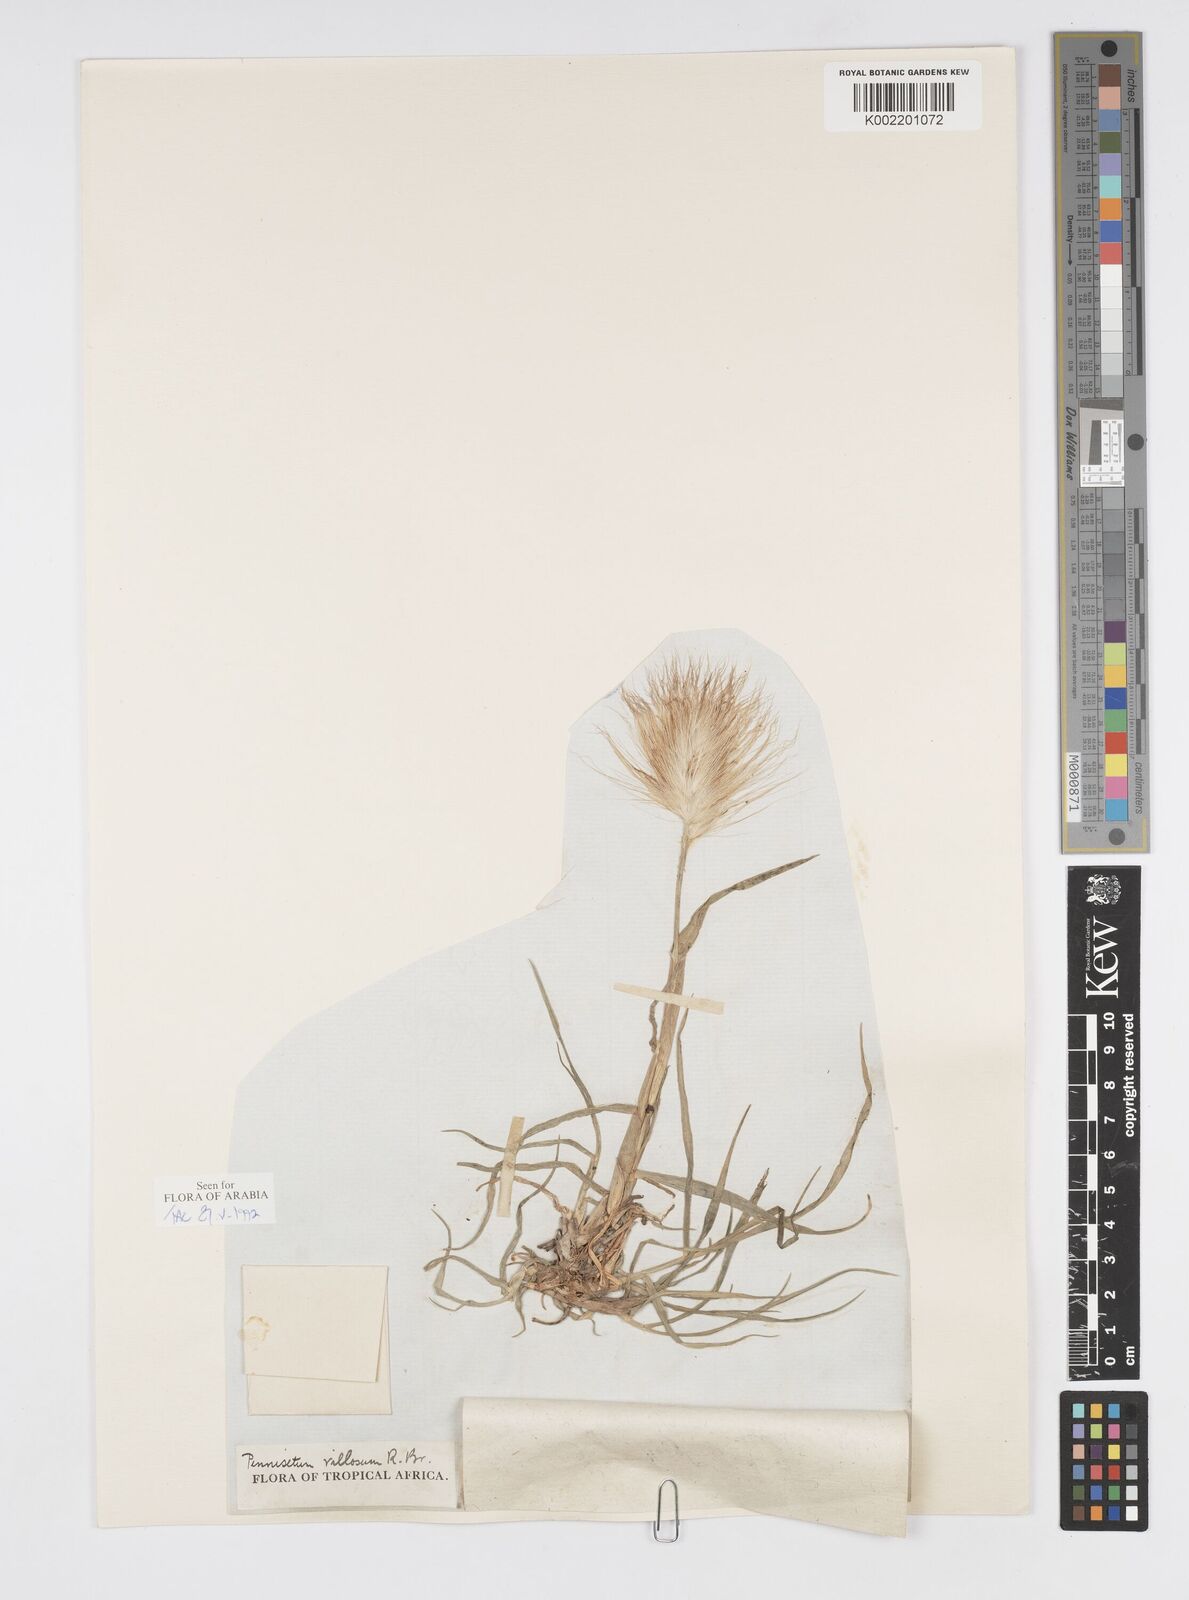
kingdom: Plantae
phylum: Tracheophyta
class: Liliopsida
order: Poales
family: Poaceae
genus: Cenchrus
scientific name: Cenchrus longisetus
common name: Feathertop
